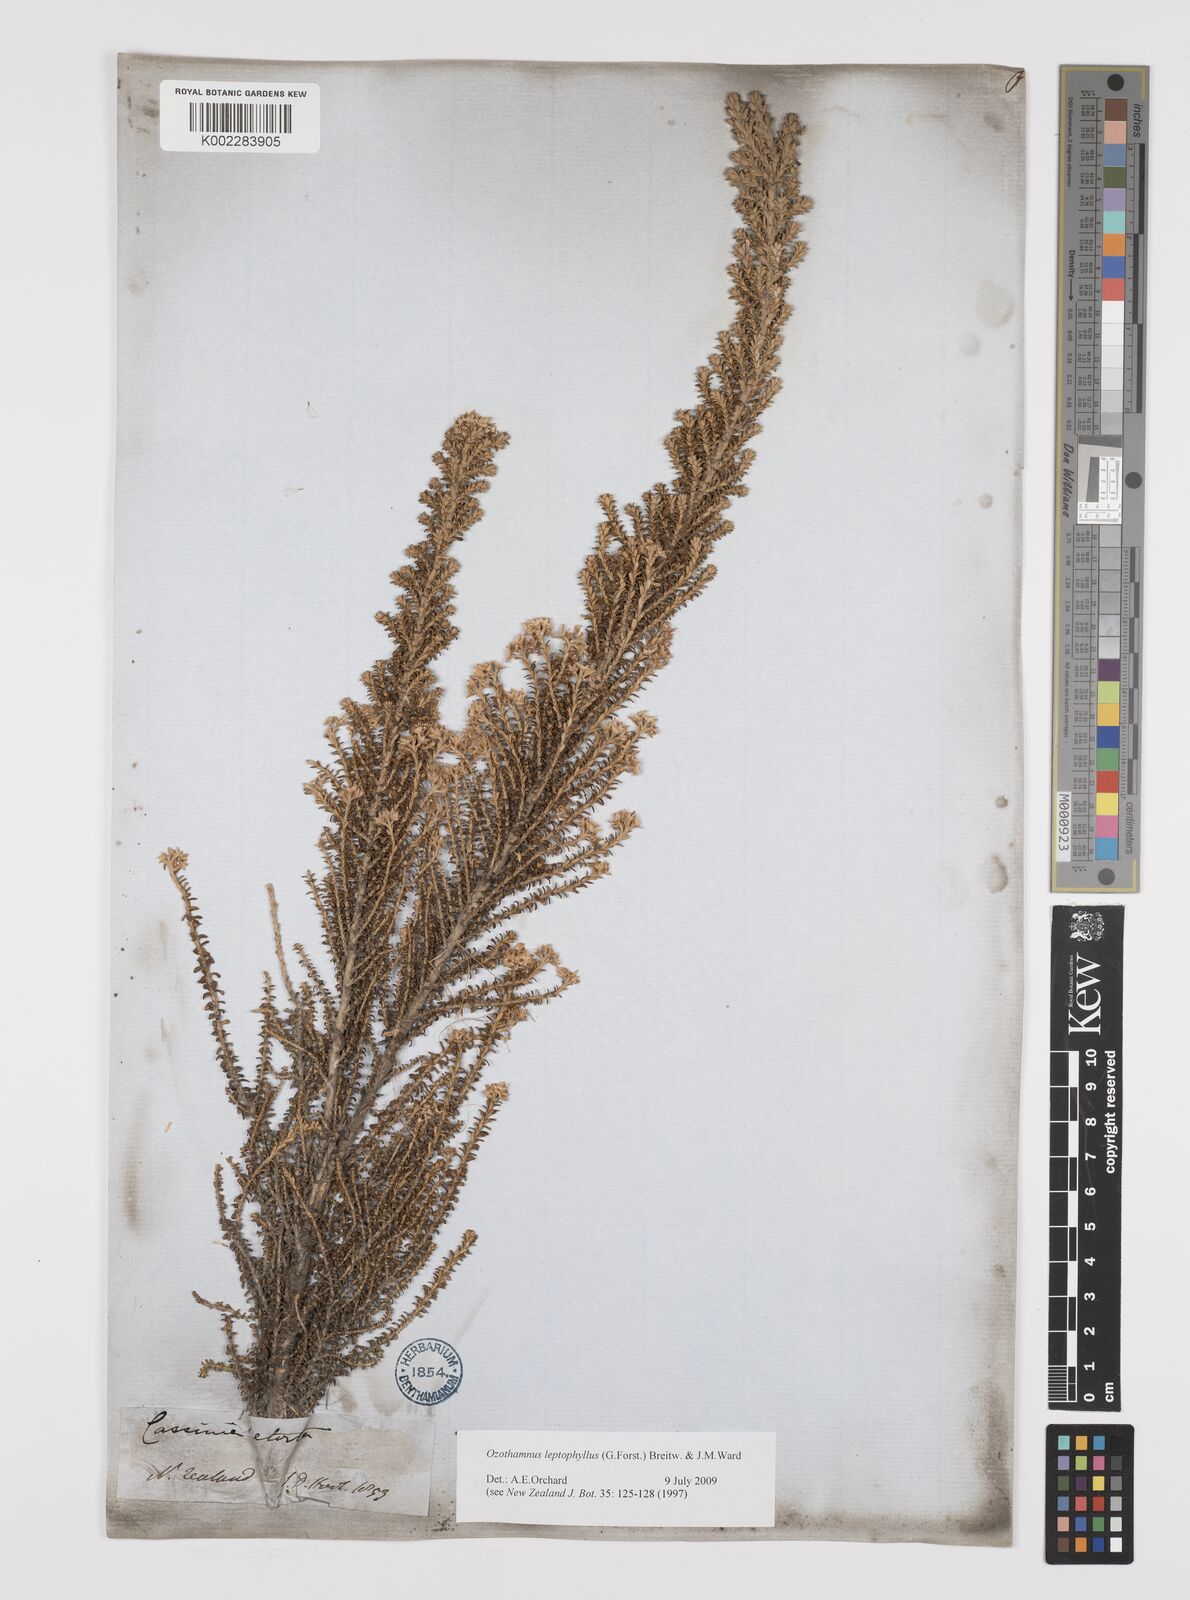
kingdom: Plantae
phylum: Tracheophyta
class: Magnoliopsida
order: Asterales
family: Asteraceae
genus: Cremnothamnus
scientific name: Cremnothamnus thomsonii
